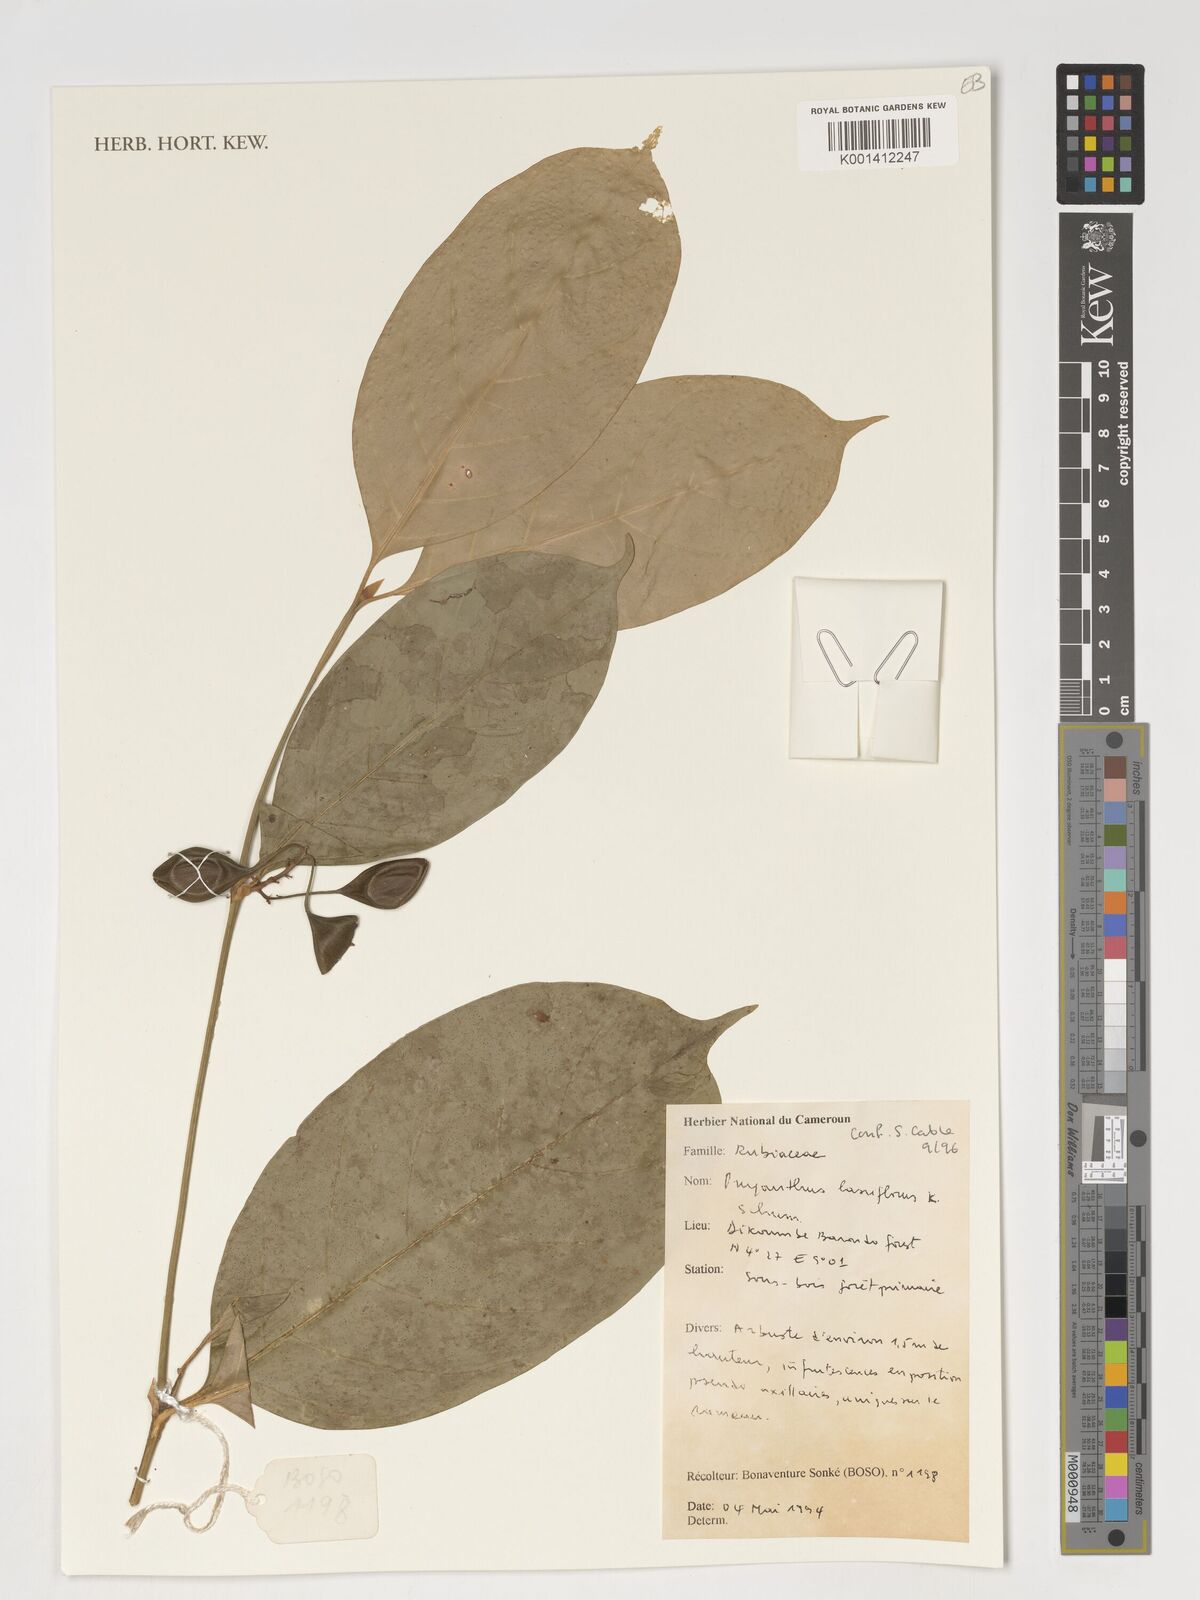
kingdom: Plantae
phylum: Tracheophyta
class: Magnoliopsida
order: Gentianales
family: Rubiaceae
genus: Oxyanthus
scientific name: Oxyanthus laxiflorus
